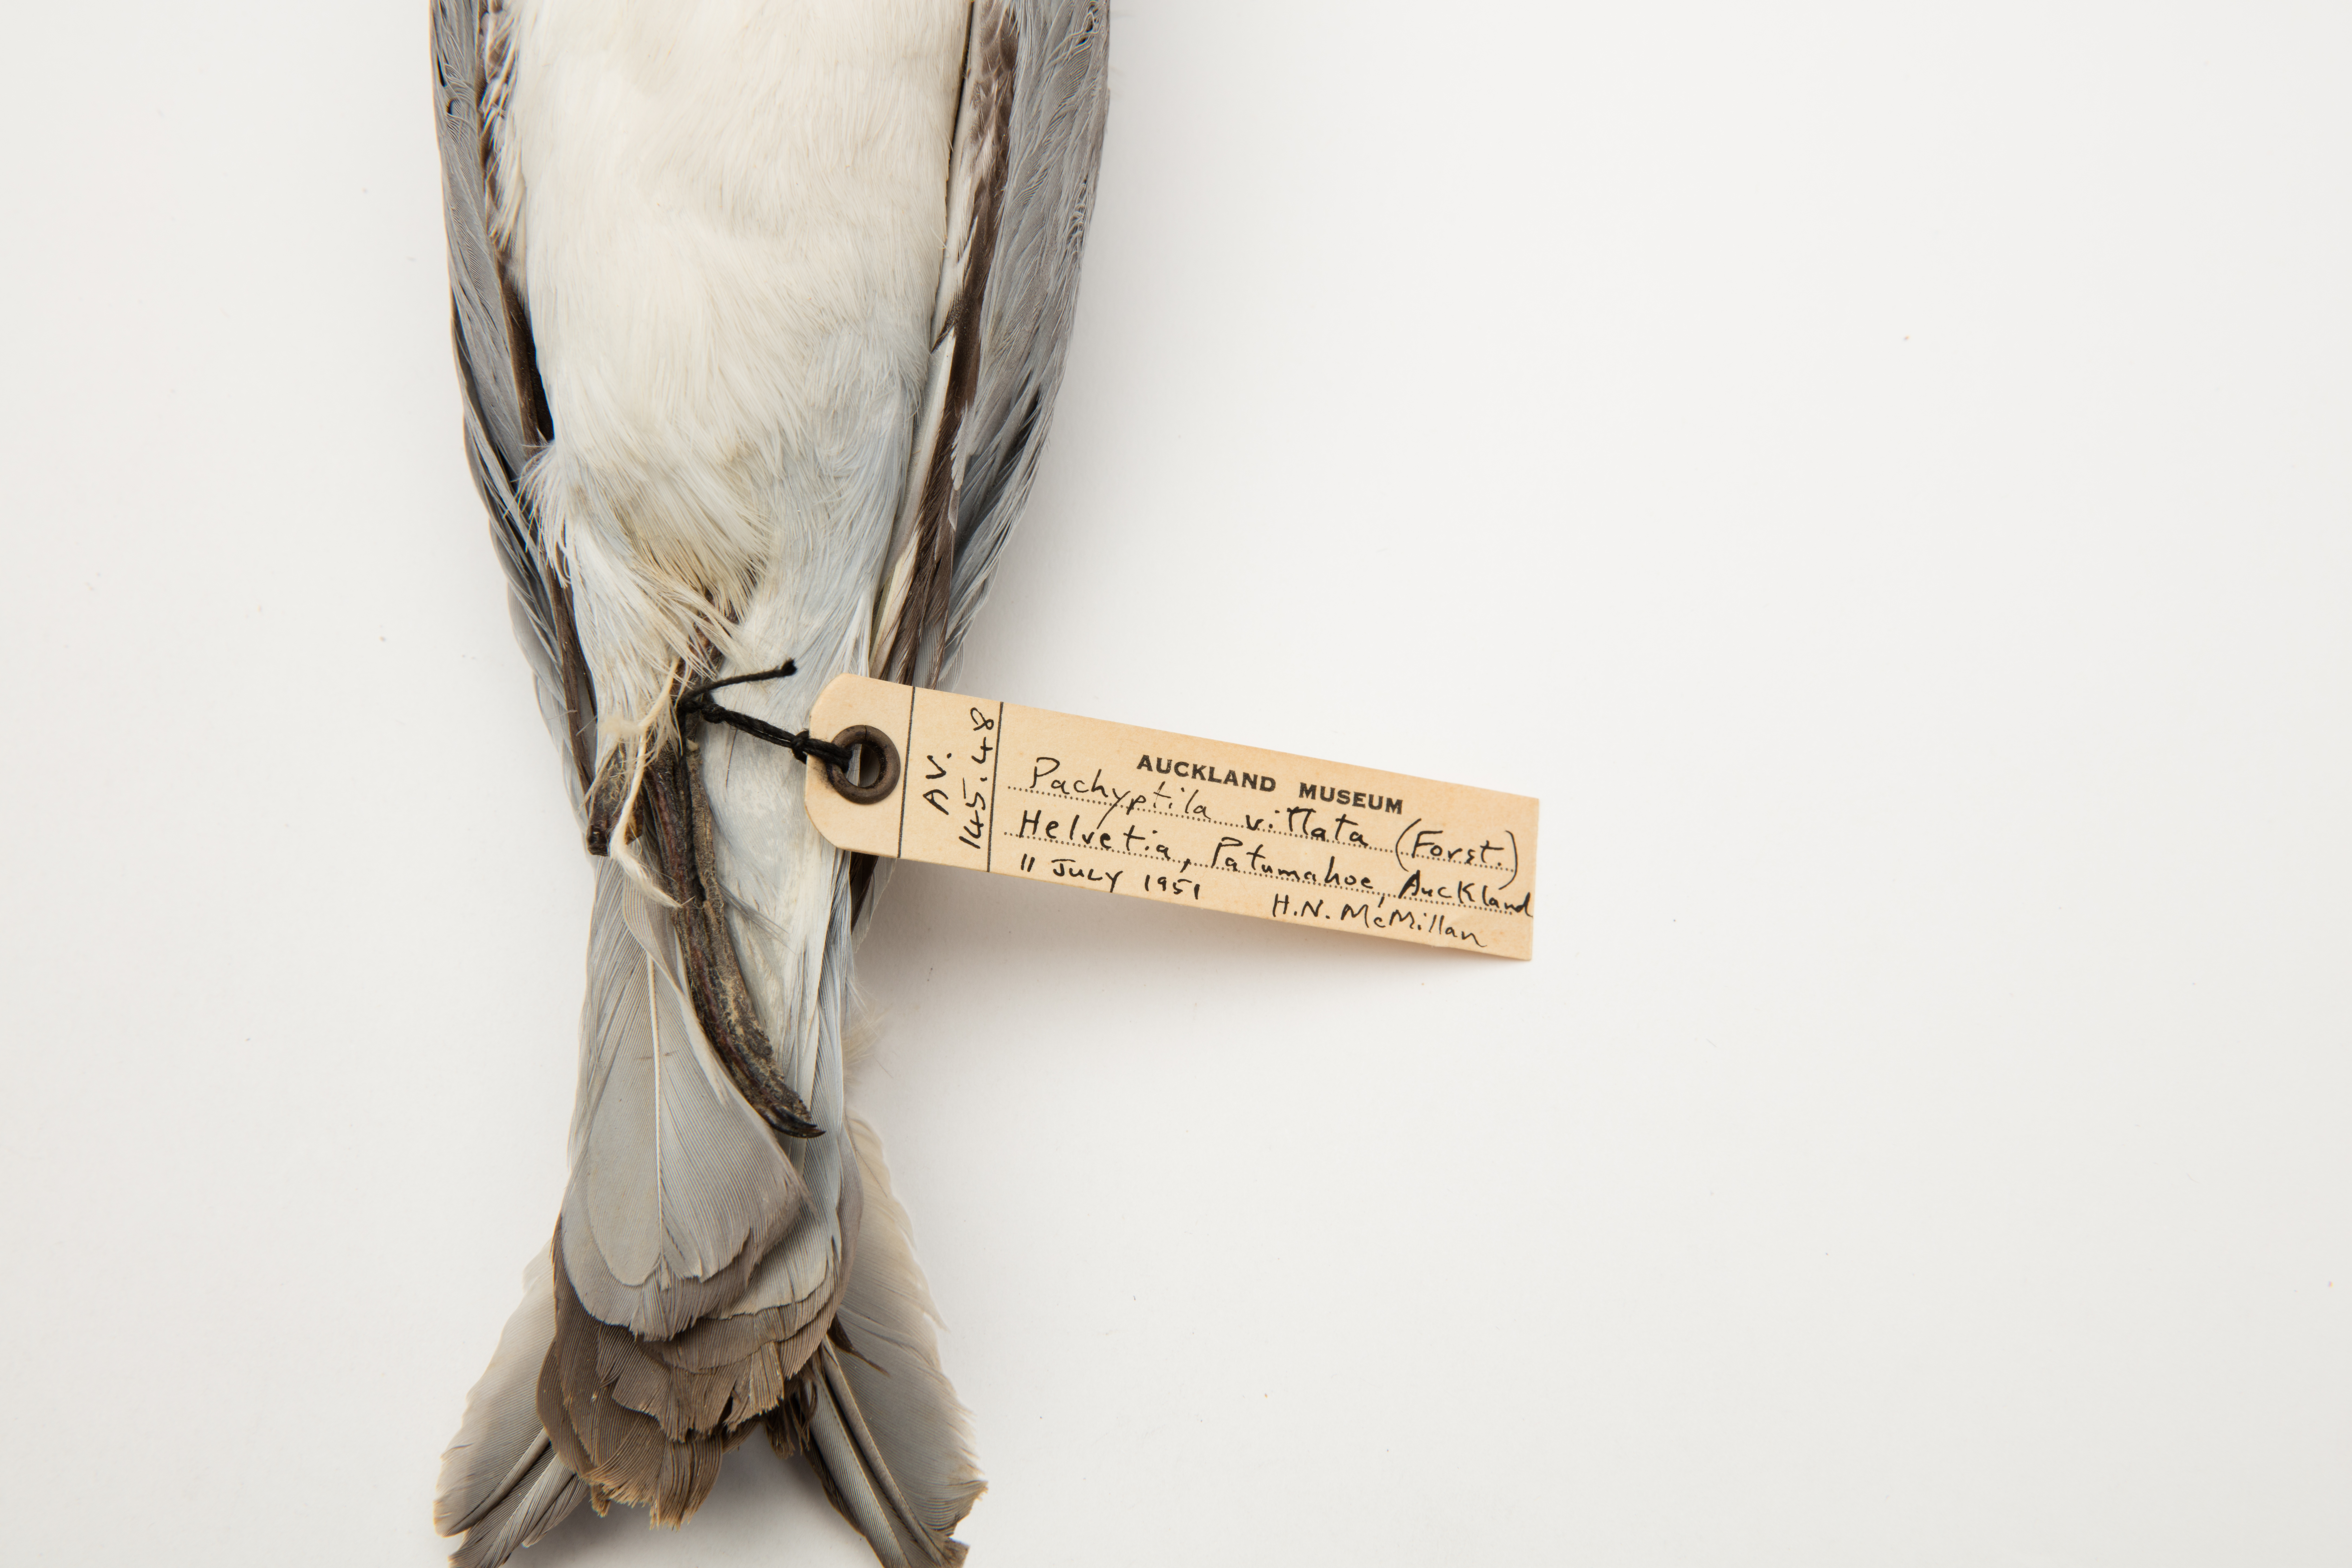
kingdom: Animalia
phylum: Chordata
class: Aves
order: Procellariiformes
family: Procellariidae
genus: Pachyptila
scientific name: Pachyptila vittata
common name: Broad-billed prion
